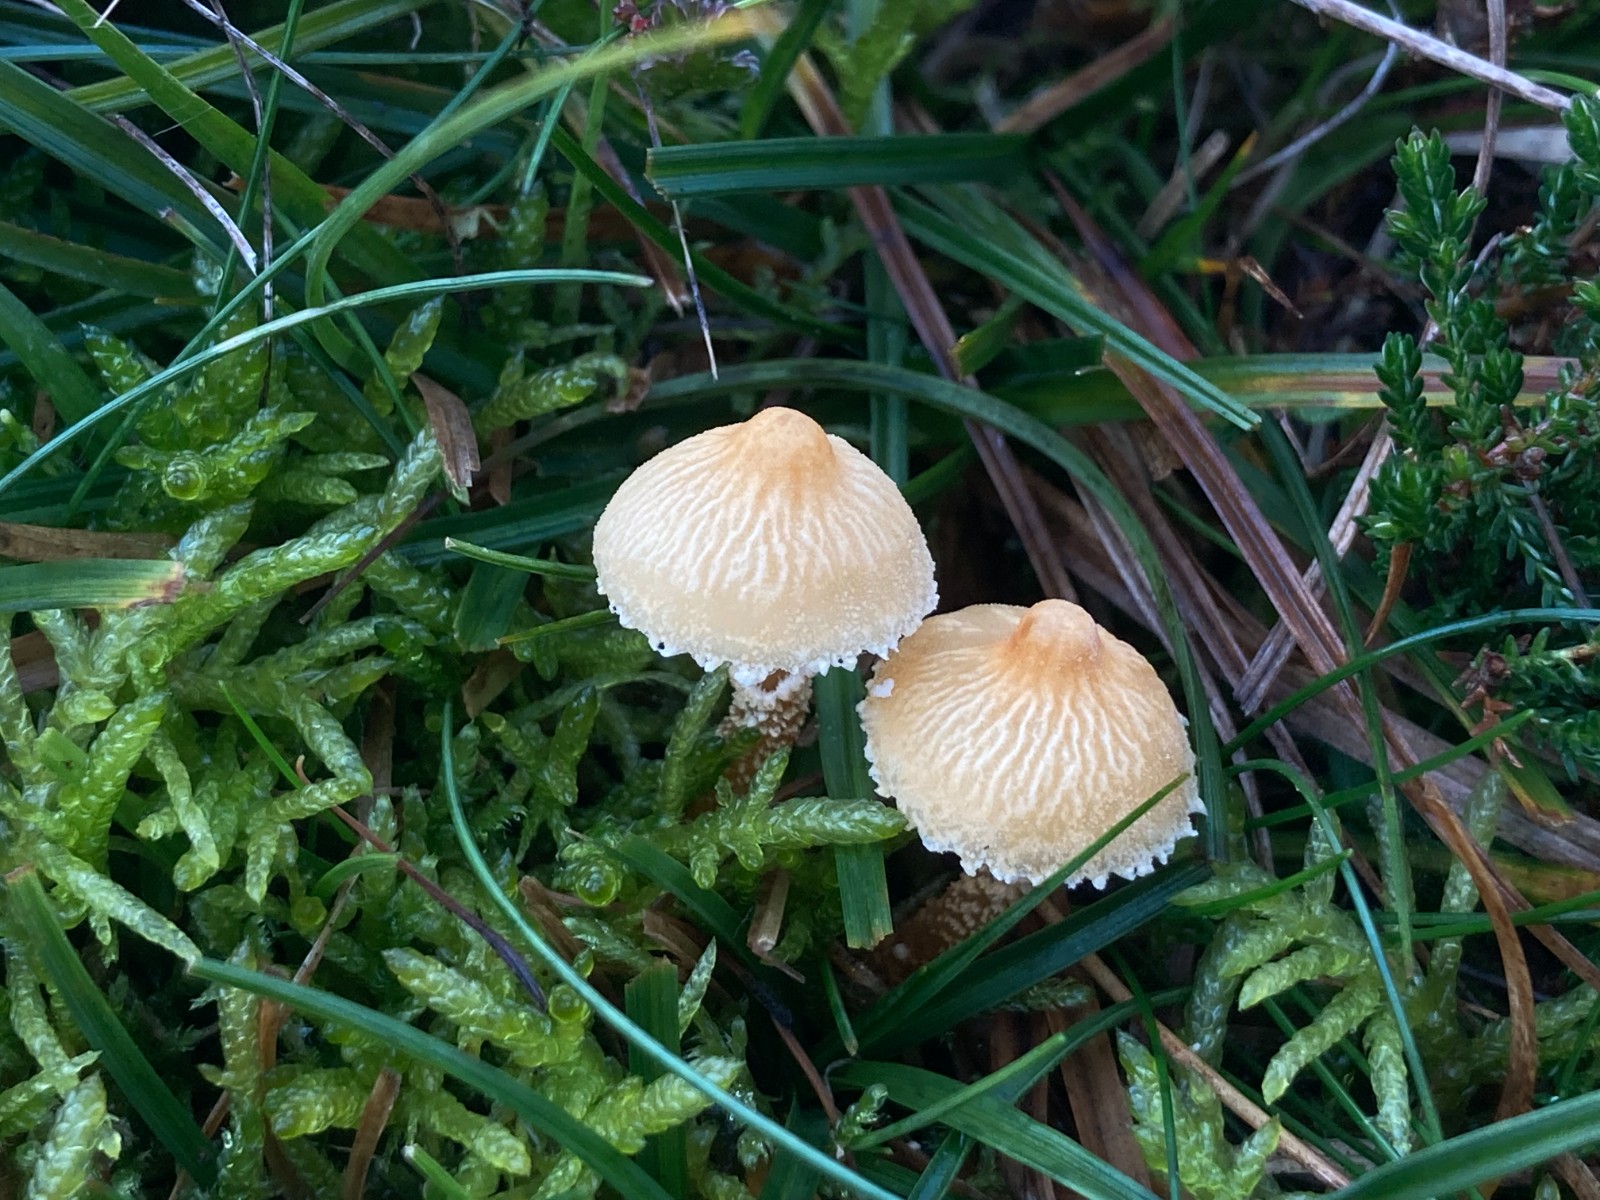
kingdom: Fungi
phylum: Basidiomycota
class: Agaricomycetes
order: Agaricales
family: Tricholomataceae
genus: Cystoderma
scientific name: Cystoderma amianthinum
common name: okkergul grynhat
